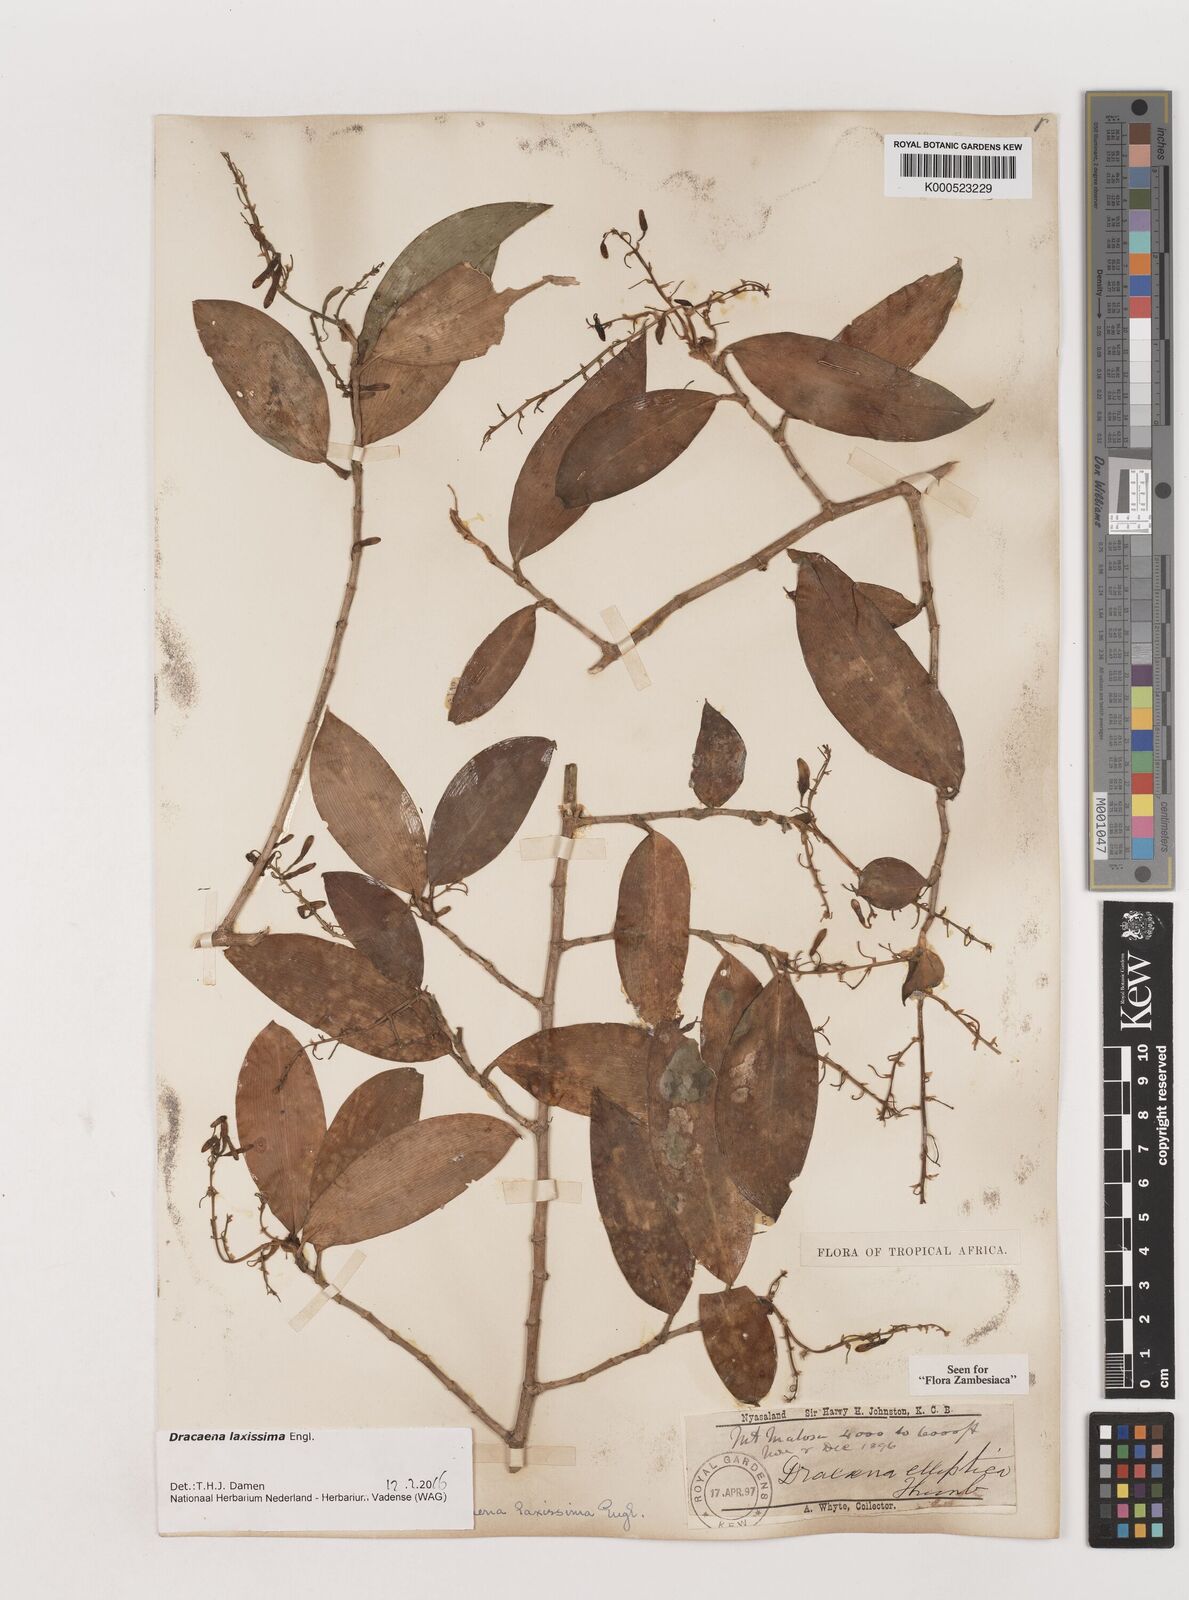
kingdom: Plantae
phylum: Tracheophyta
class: Liliopsida
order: Asparagales
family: Asparagaceae
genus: Dracaena
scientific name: Dracaena laxissima
